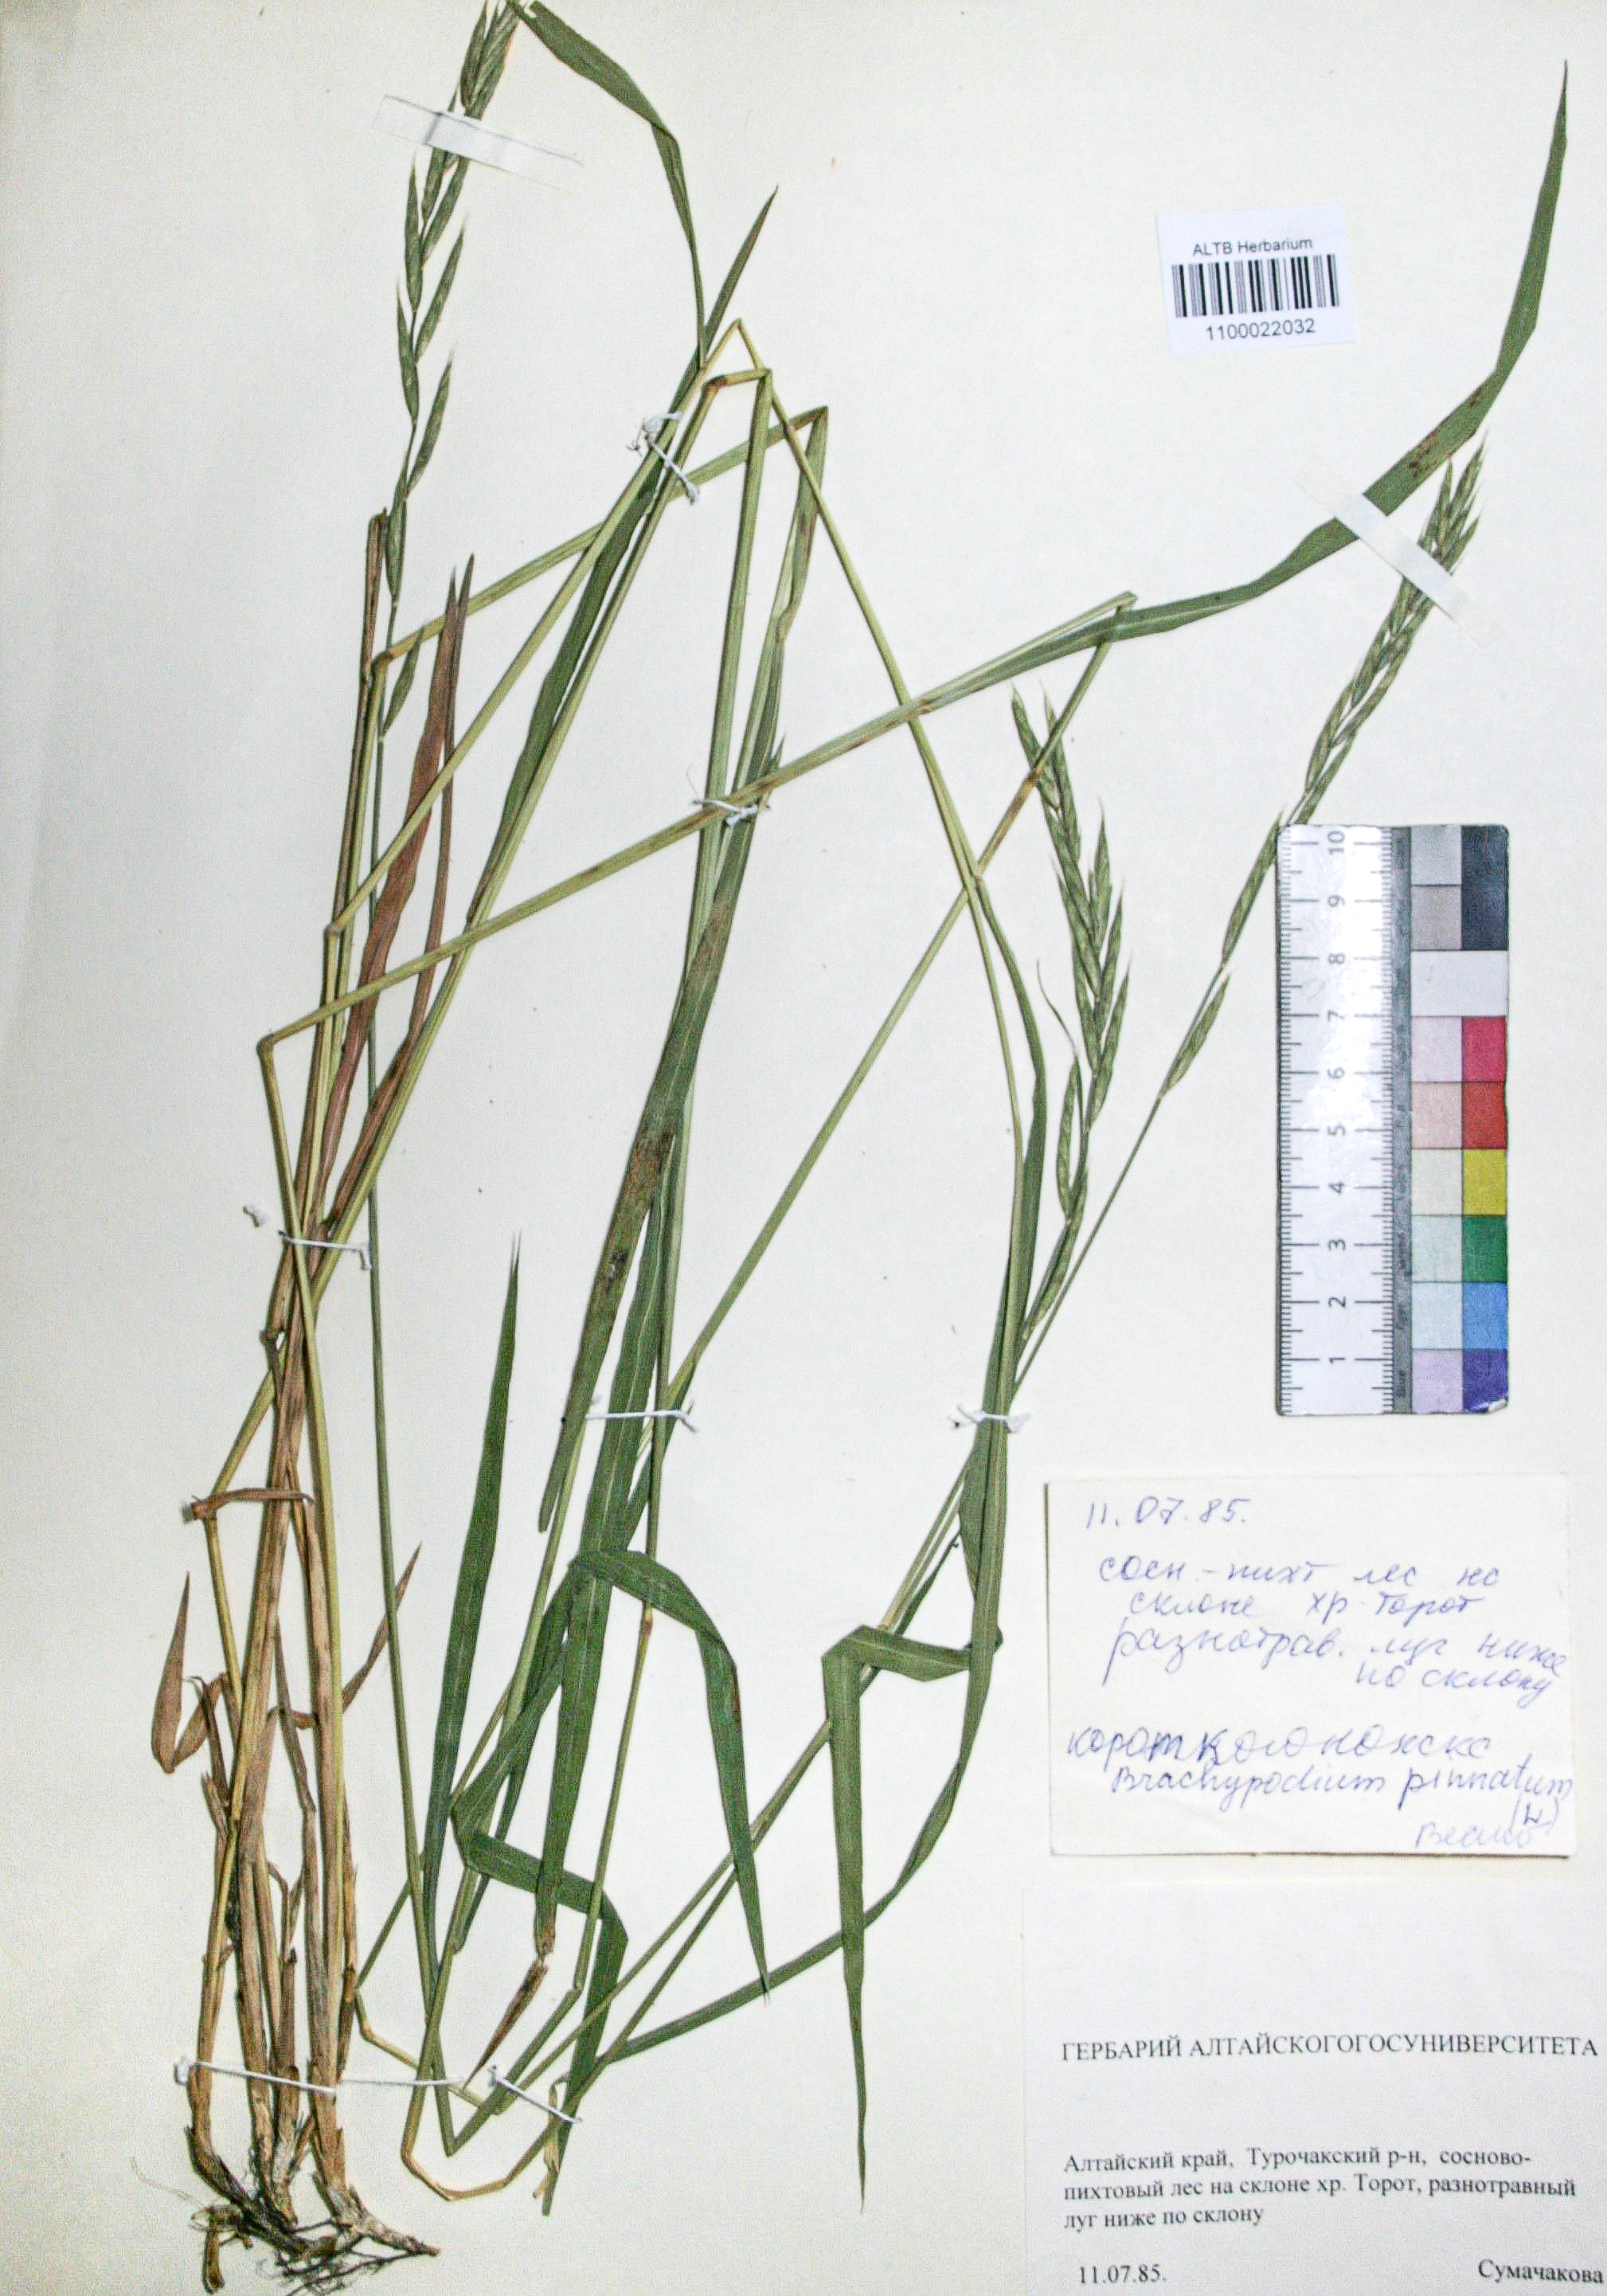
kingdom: Plantae
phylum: Tracheophyta
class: Liliopsida
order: Poales
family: Poaceae
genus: Brachypodium
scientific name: Brachypodium pinnatum
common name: Tor grass
